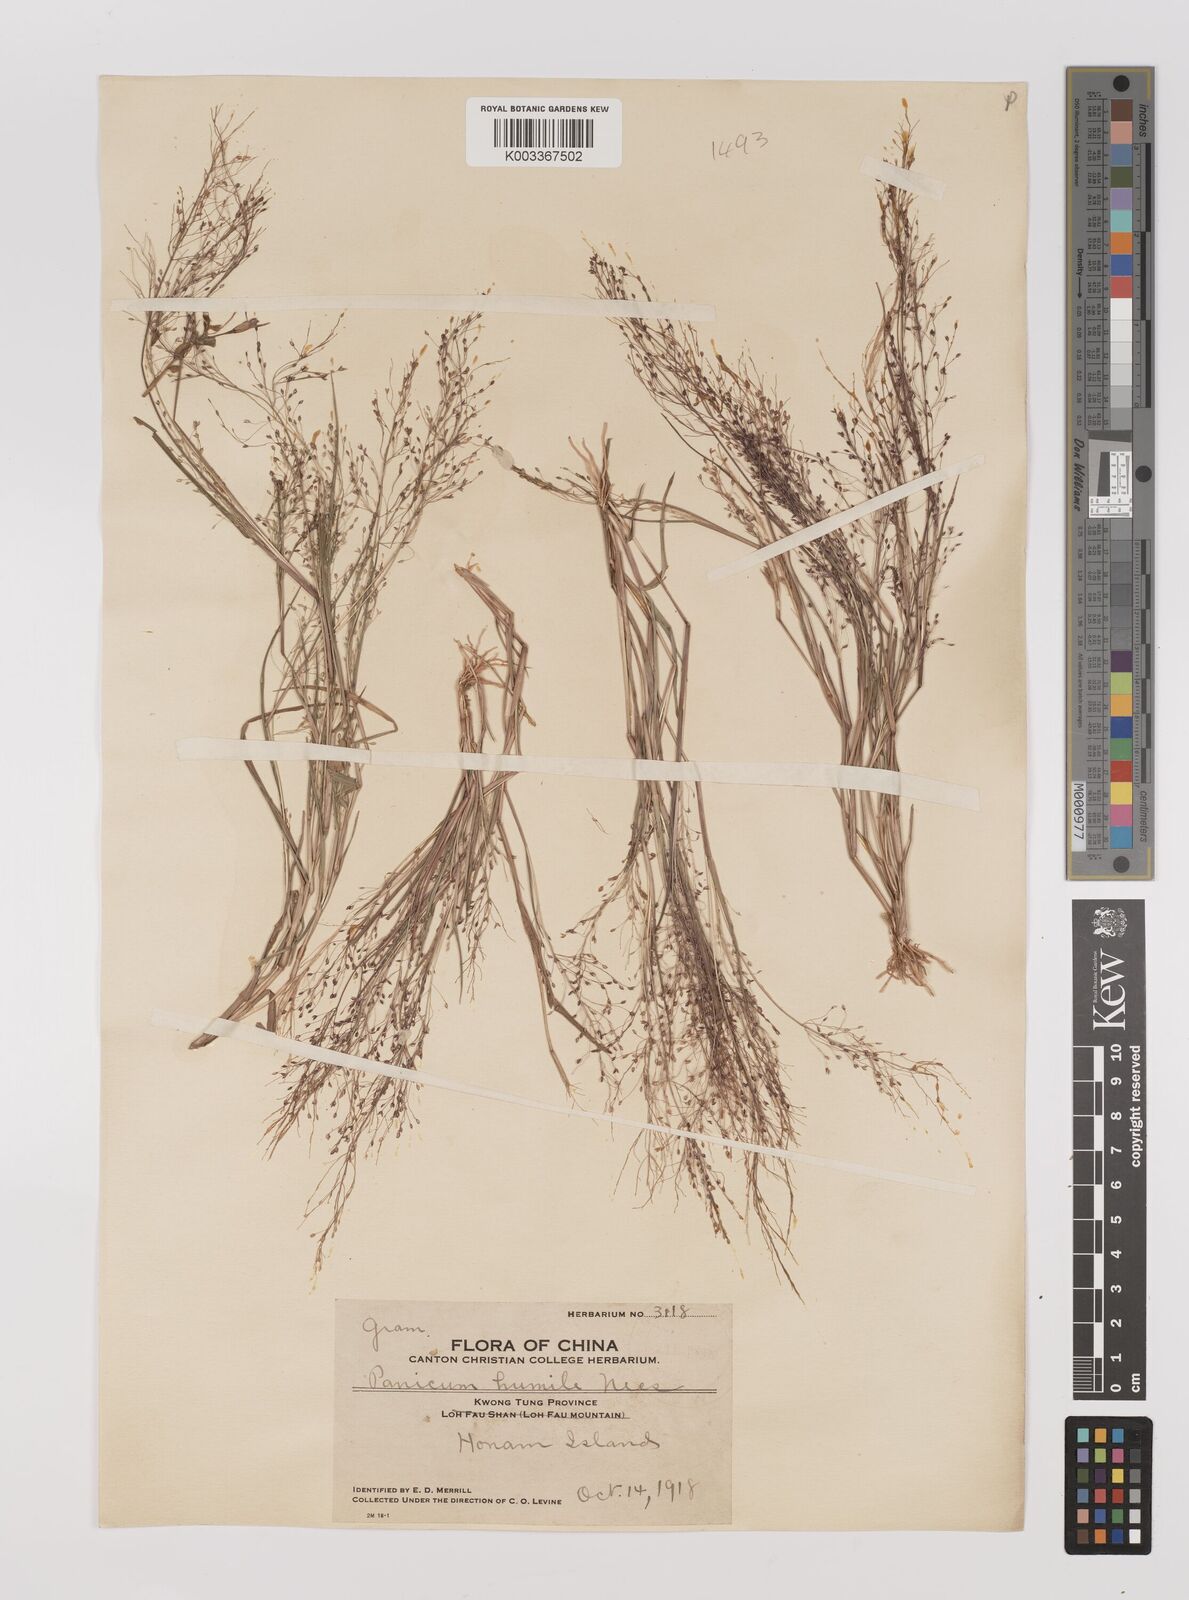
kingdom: Plantae
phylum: Tracheophyta
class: Liliopsida
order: Poales
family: Poaceae
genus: Panicum
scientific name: Panicum
